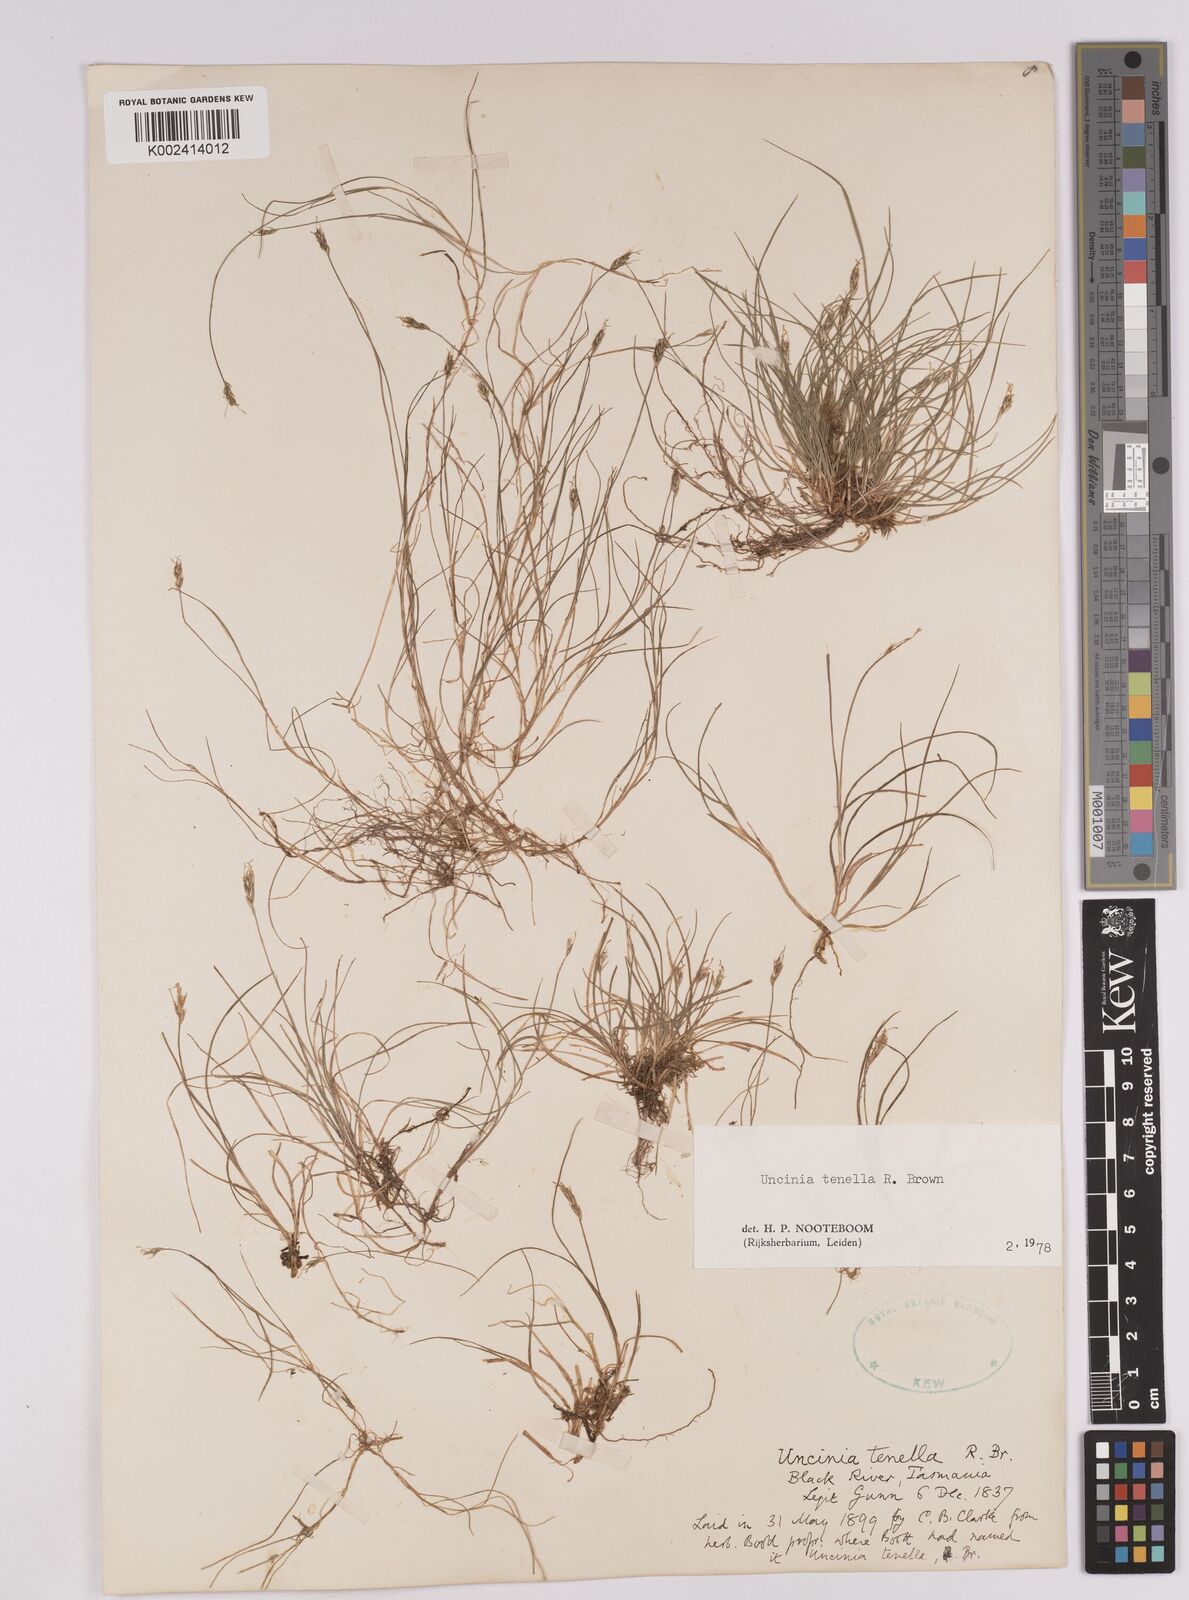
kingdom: Plantae
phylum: Tracheophyta
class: Liliopsida
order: Poales
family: Cyperaceae
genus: Carex
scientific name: Carex austrotenella
